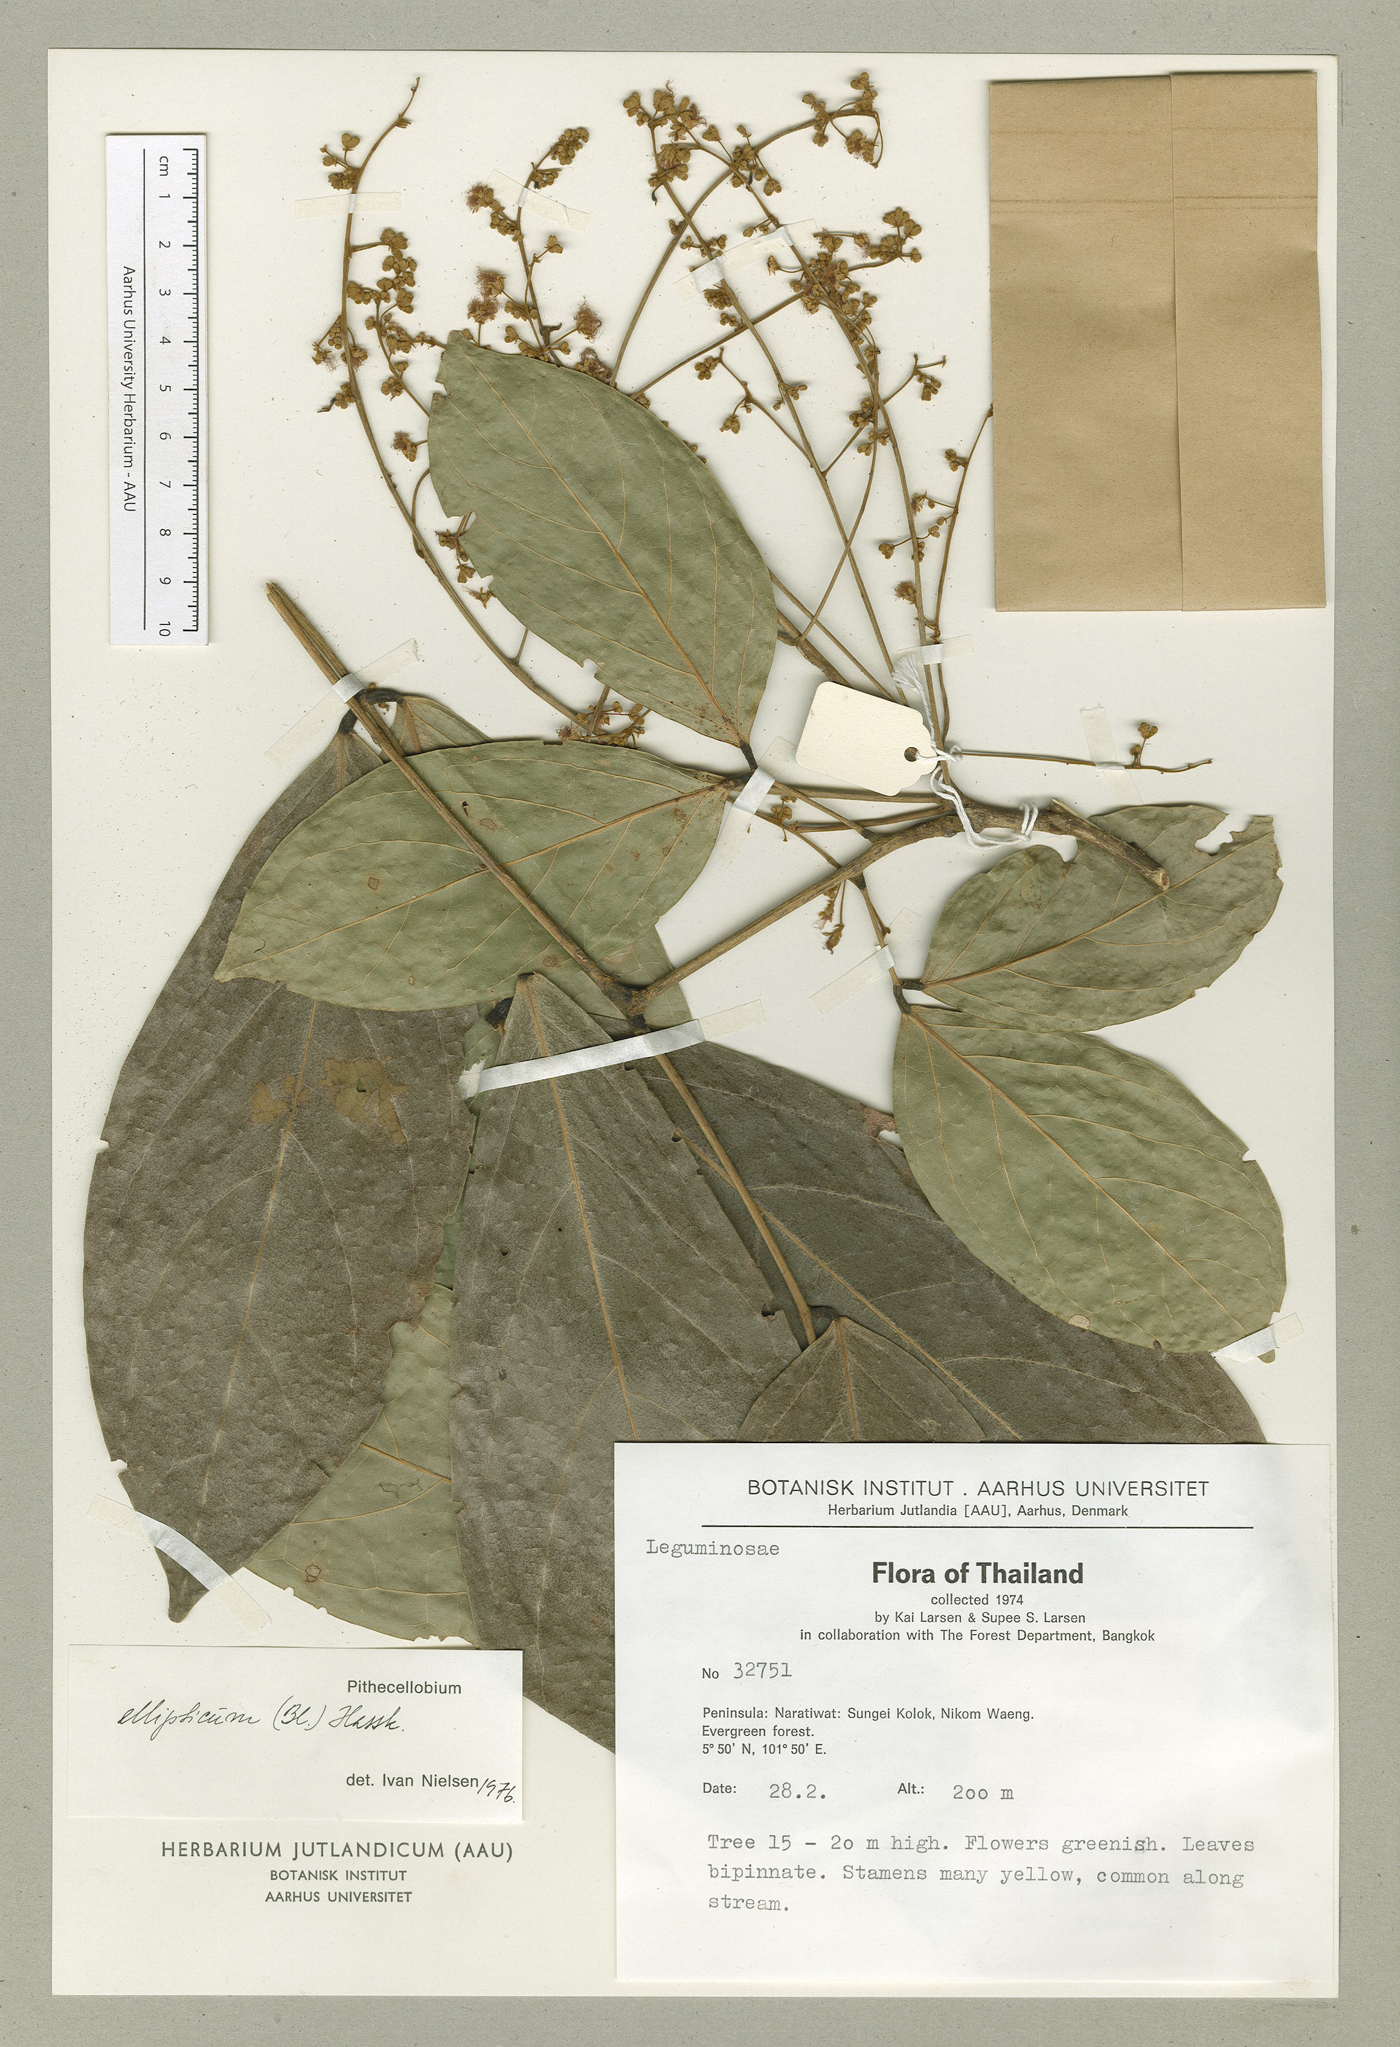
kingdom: Plantae
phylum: Tracheophyta
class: Magnoliopsida
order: Fabales
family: Fabaceae
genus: Archidendron
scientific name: Archidendron ellipticum
